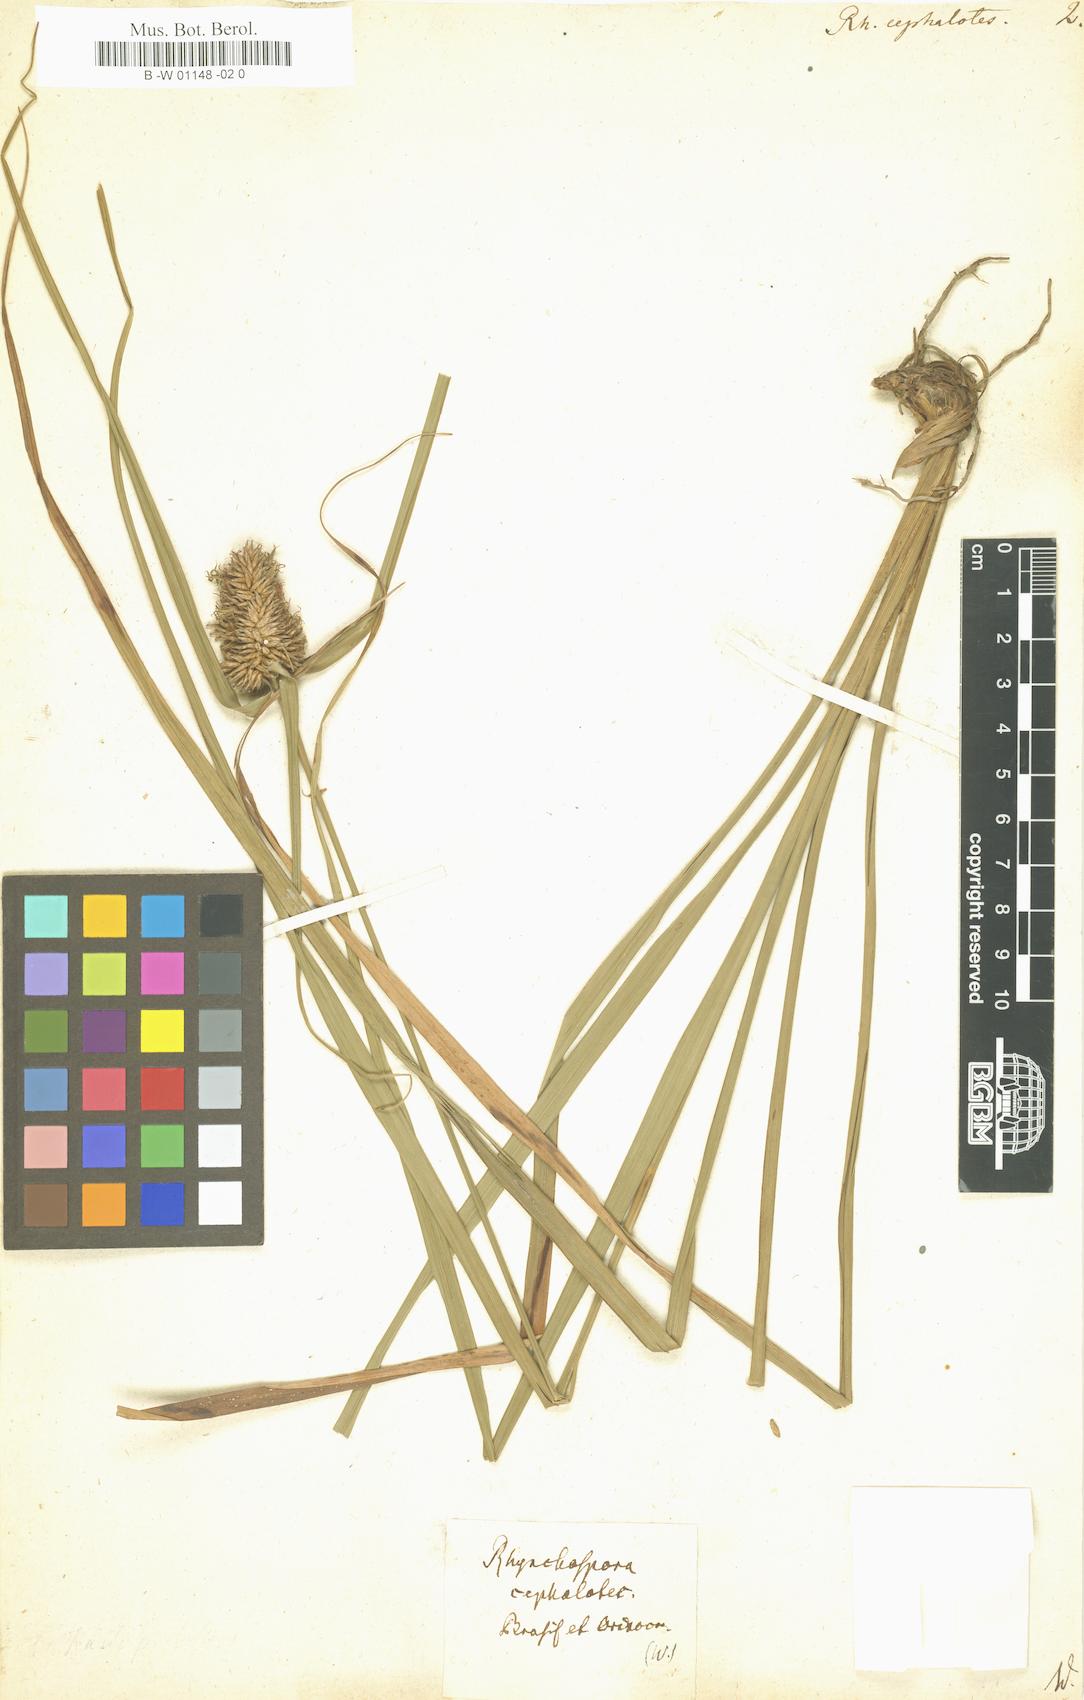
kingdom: Plantae
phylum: Tracheophyta
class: Liliopsida
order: Poales
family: Cyperaceae
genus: Rhynchospora
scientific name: Rhynchospora cephalotes
